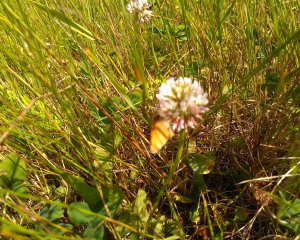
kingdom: Animalia
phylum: Arthropoda
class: Insecta
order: Lepidoptera
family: Hesperiidae
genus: Thymelicus
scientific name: Thymelicus lineola
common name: European Skipper
